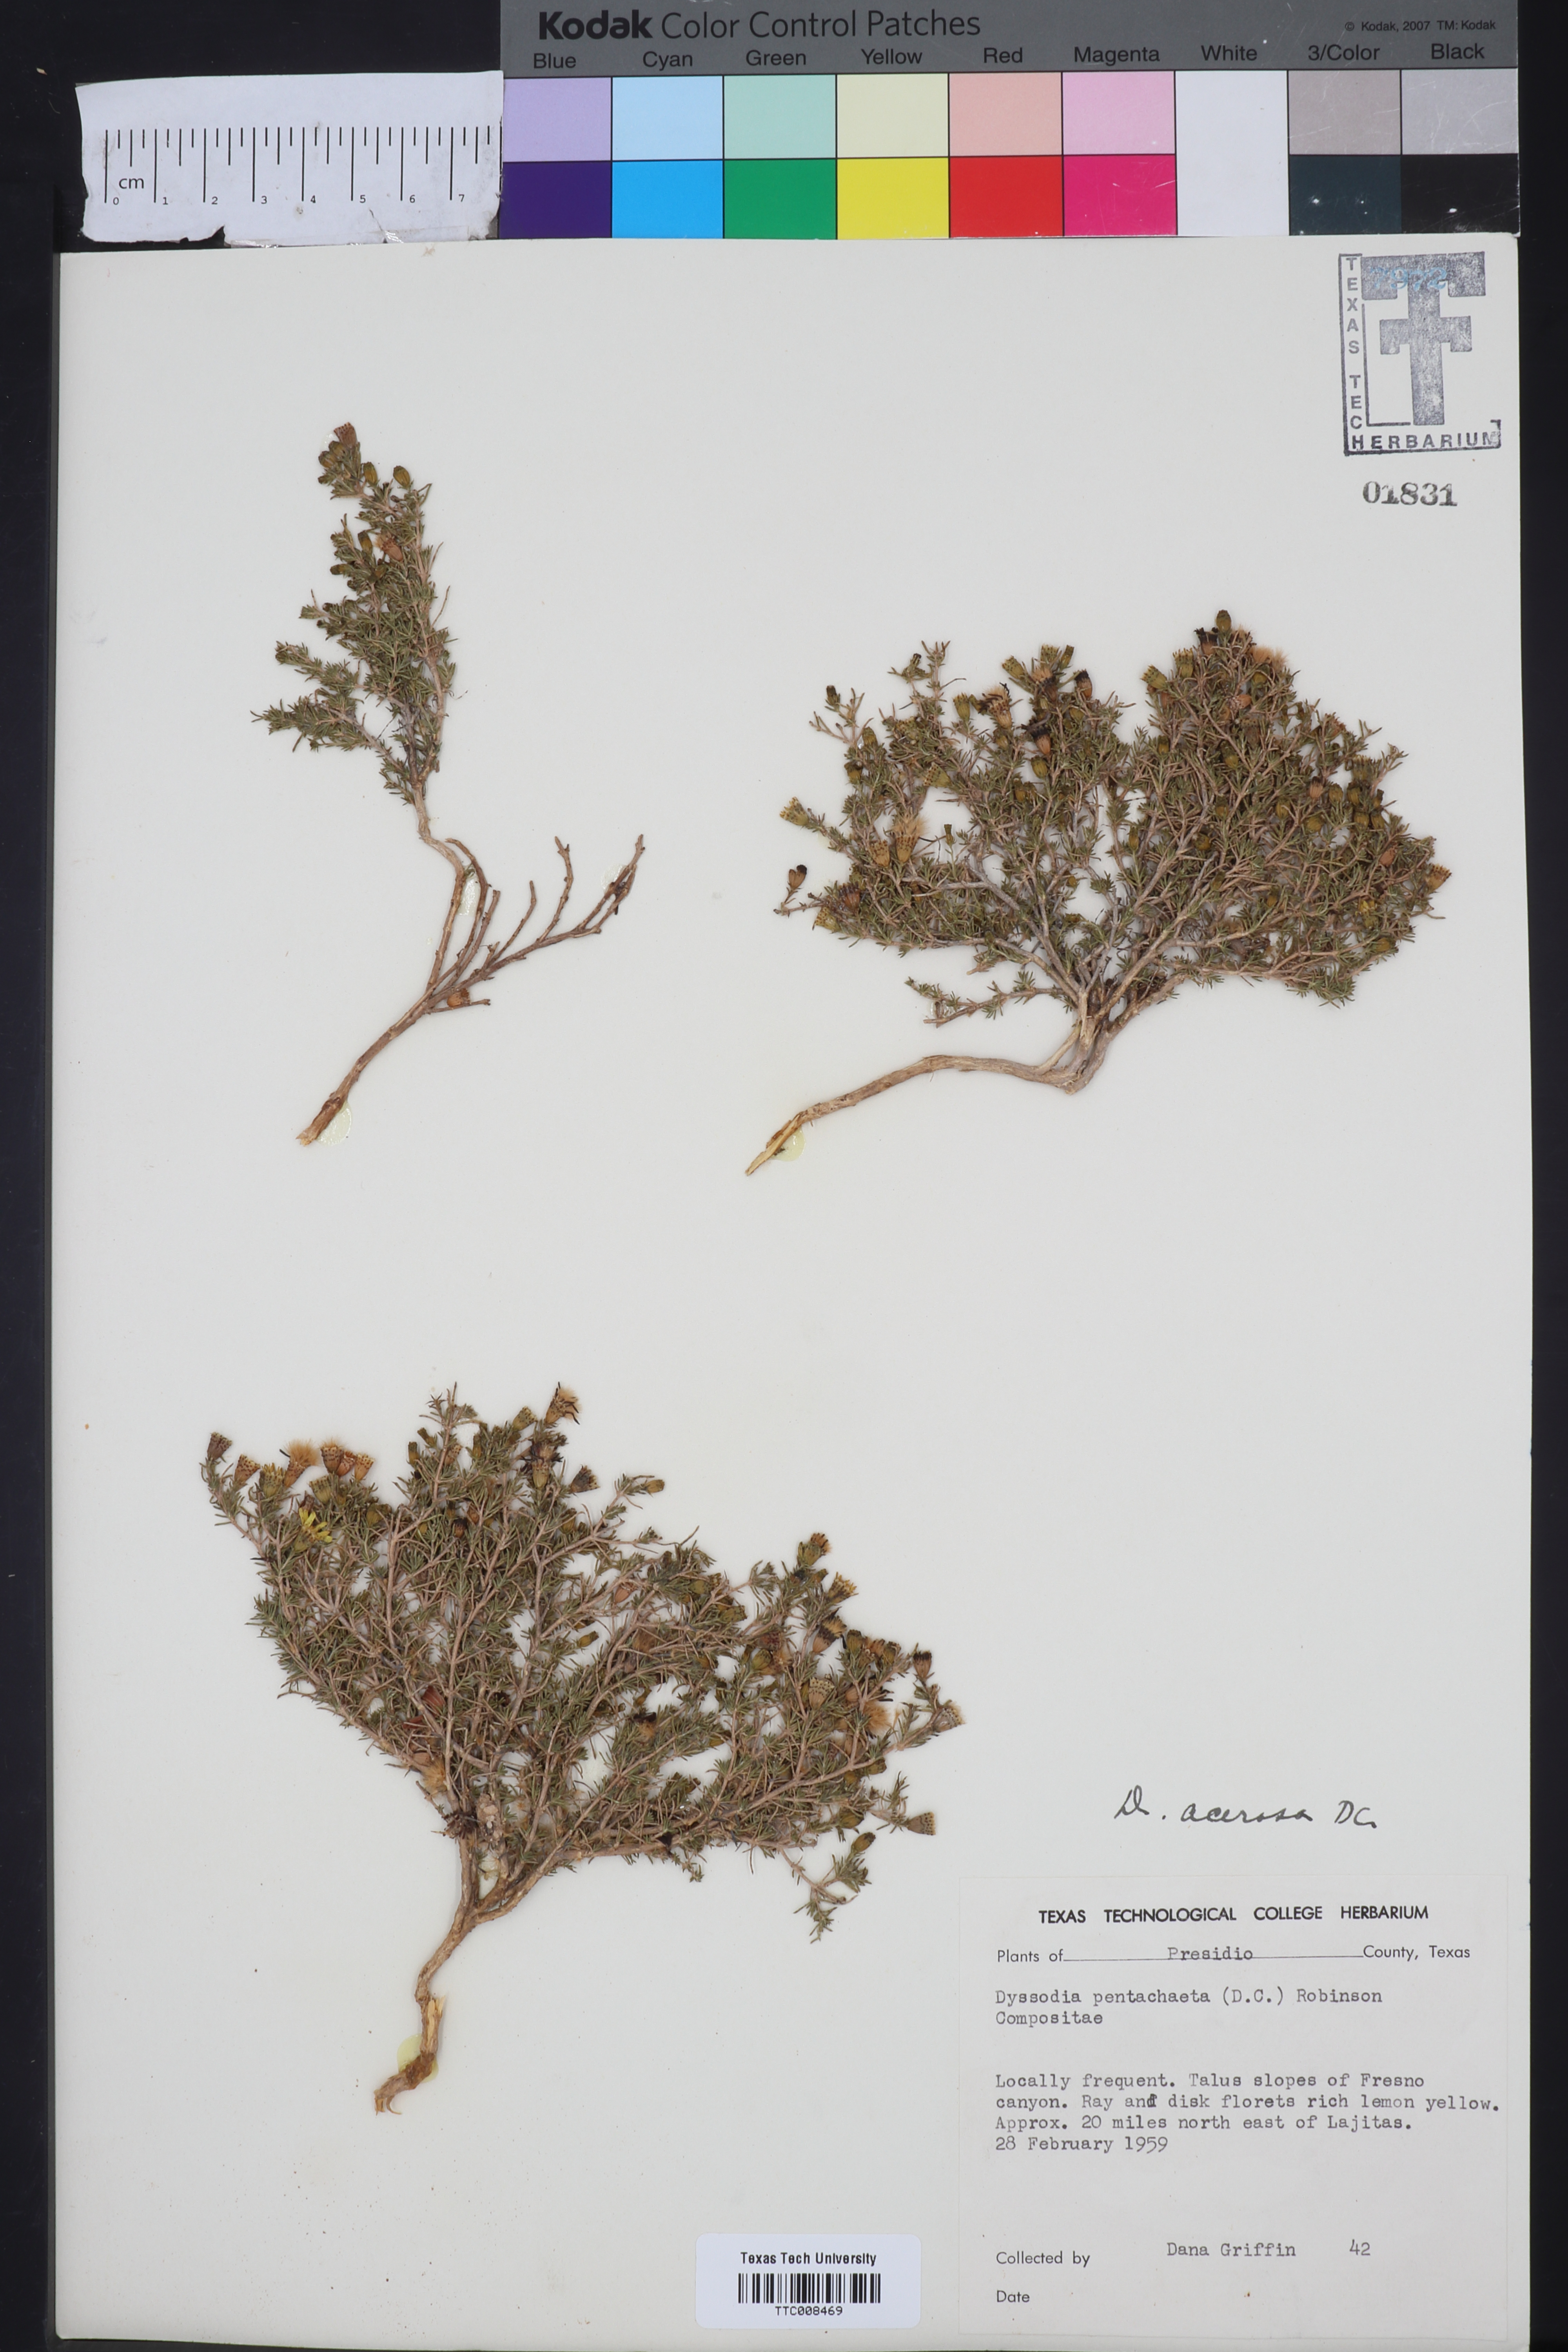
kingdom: Plantae
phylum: Tracheophyta
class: Magnoliopsida
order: Asterales
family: Asteraceae
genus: Thymophylla
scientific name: Thymophylla acerosa
